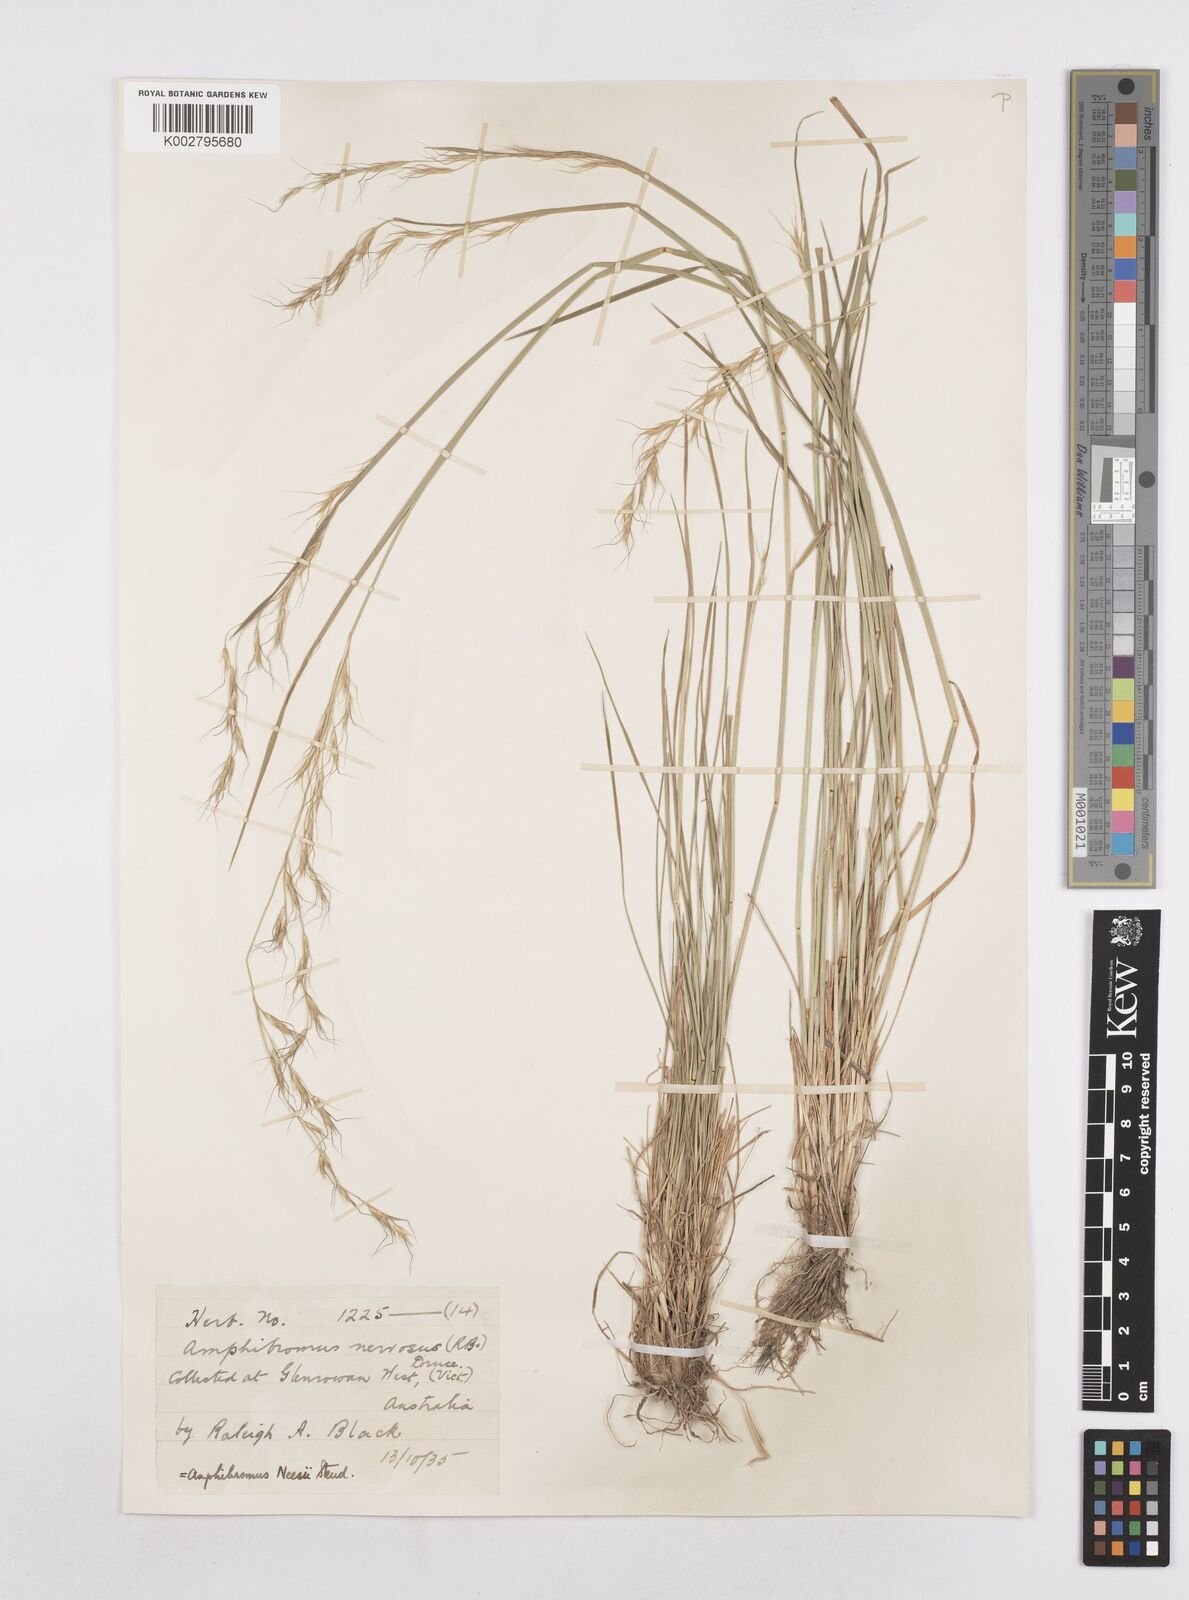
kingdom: Plantae
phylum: Tracheophyta
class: Liliopsida
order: Poales
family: Poaceae
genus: Amphibromus
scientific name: Amphibromus neesii
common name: Australian wallaby grass
